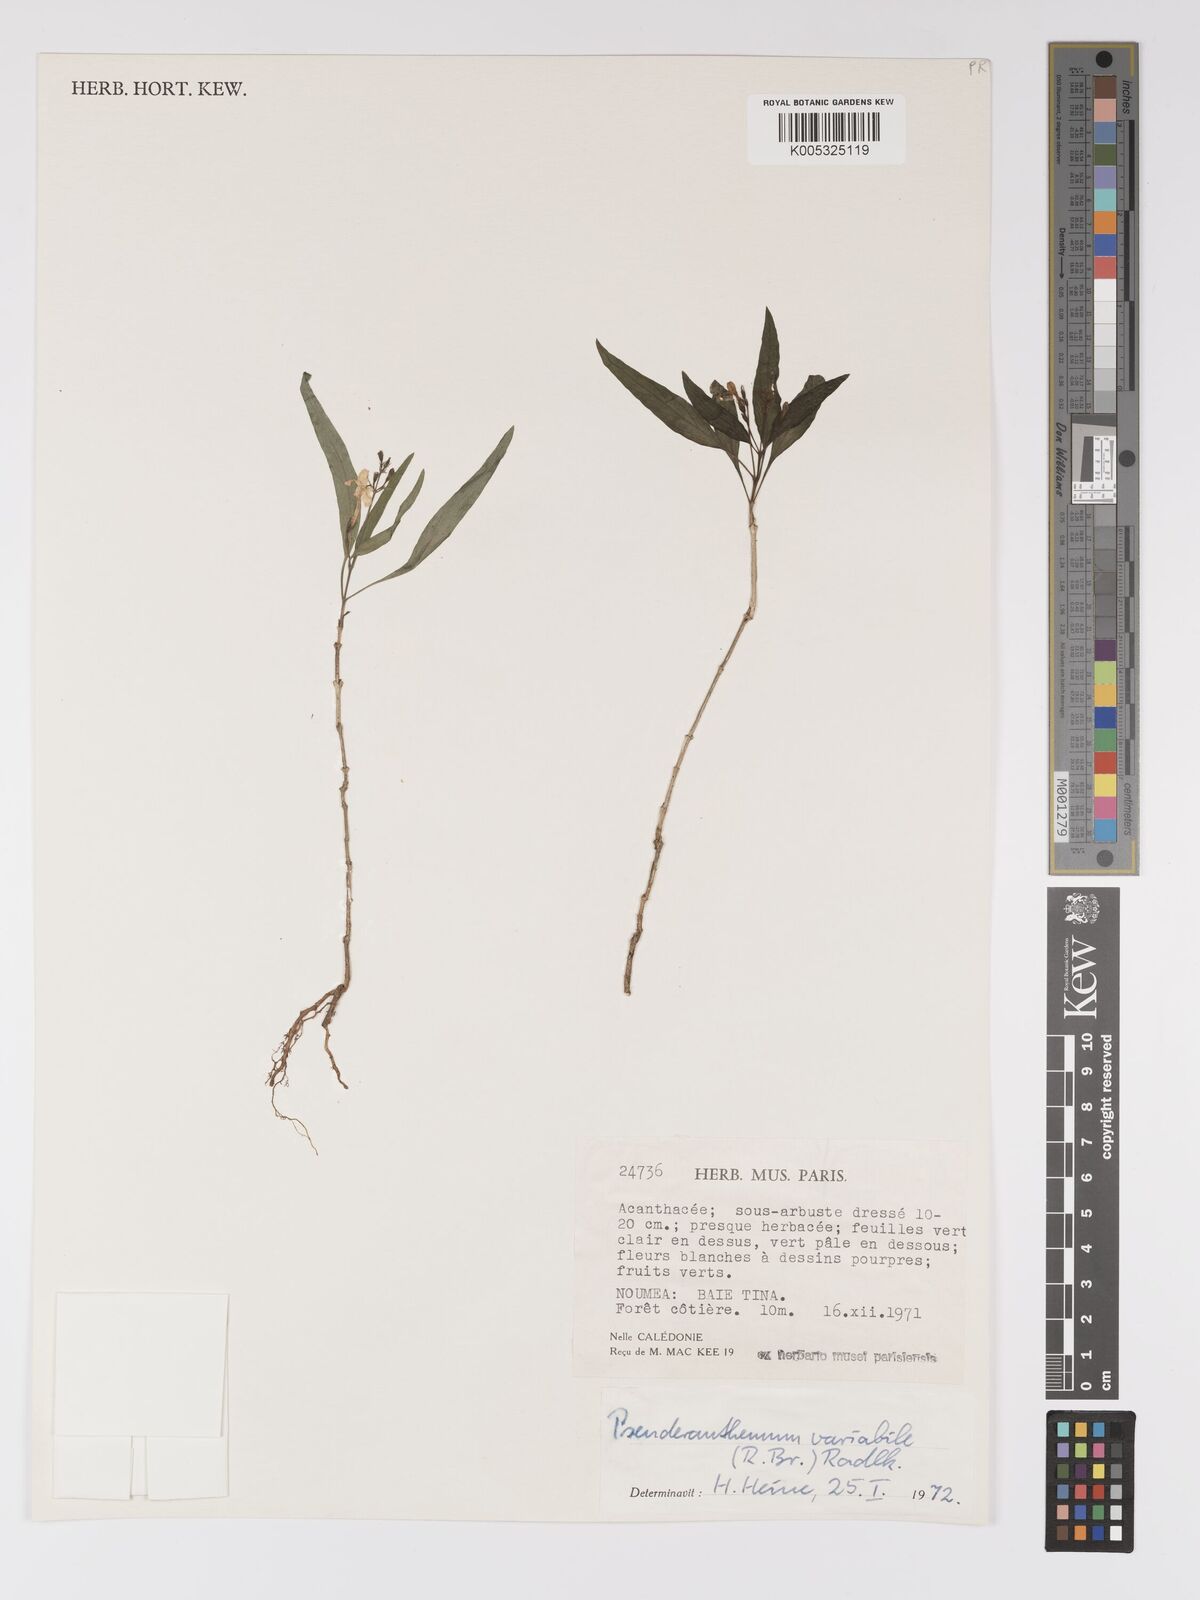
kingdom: Plantae
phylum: Tracheophyta
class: Magnoliopsida
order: Lamiales
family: Acanthaceae
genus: Pseuderanthemum
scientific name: Pseuderanthemum variabile
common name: Night and afternoon
